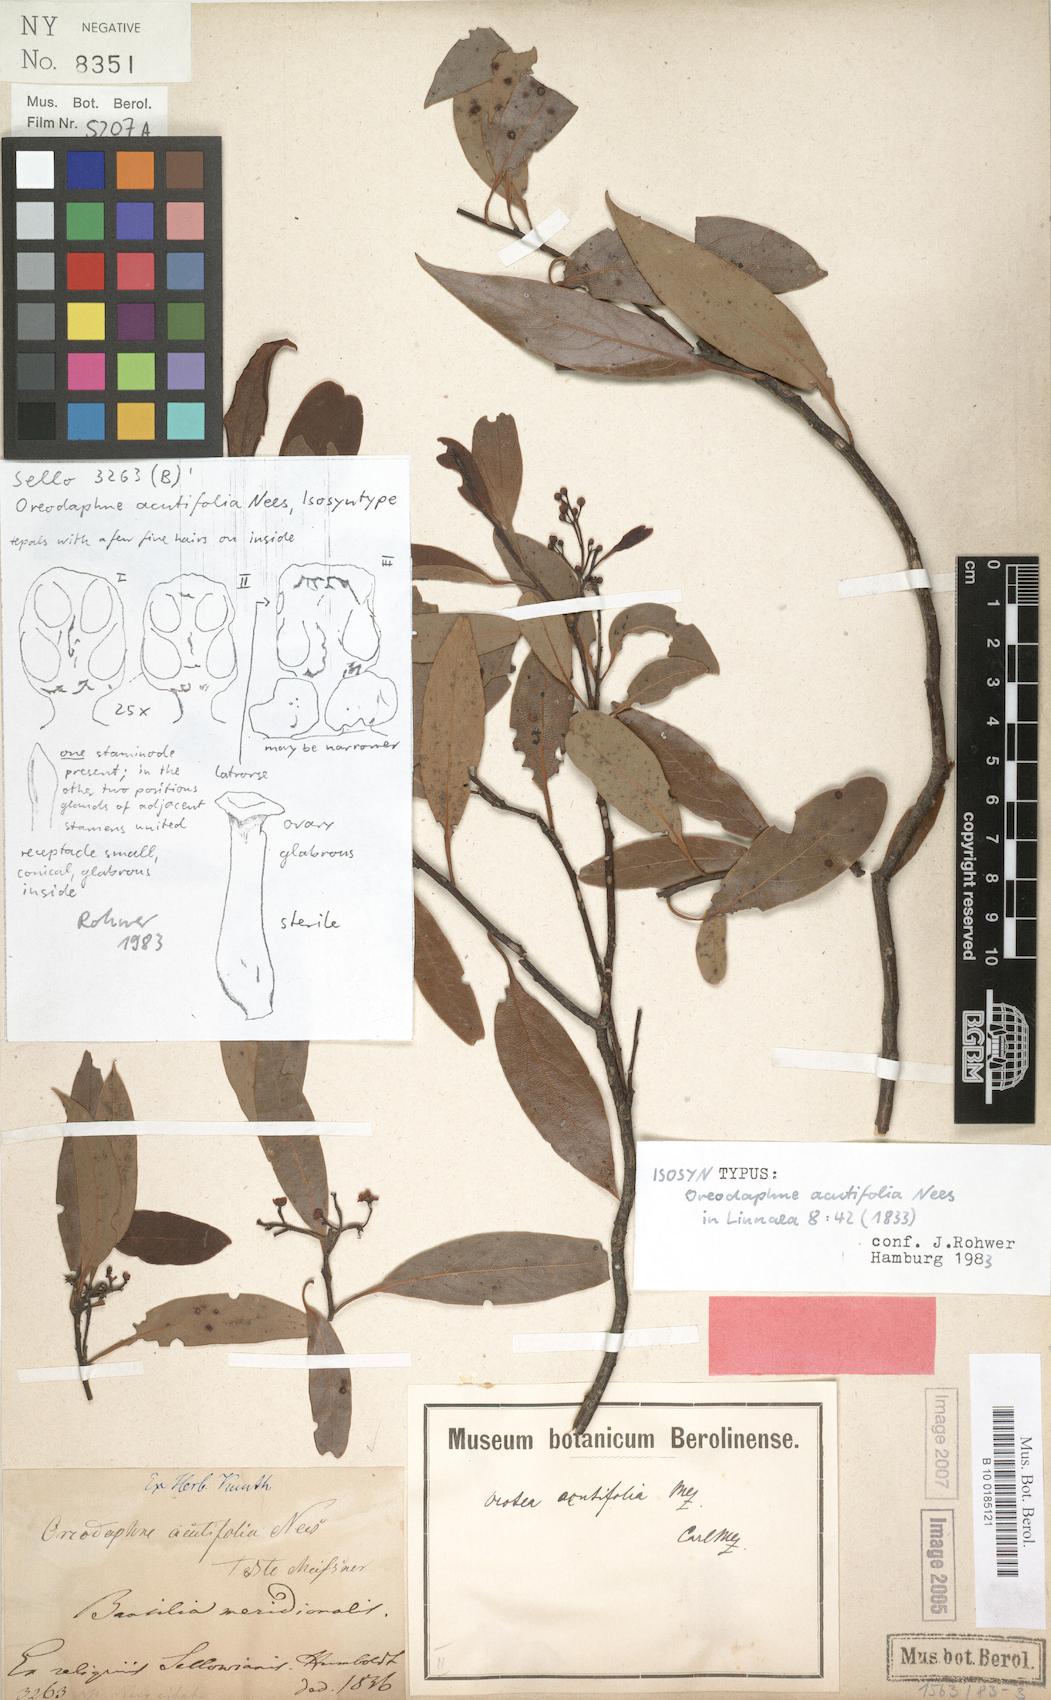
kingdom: Plantae
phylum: Tracheophyta
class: Magnoliopsida
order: Laurales
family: Lauraceae
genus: Ocotea
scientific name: Ocotea acutifolia
